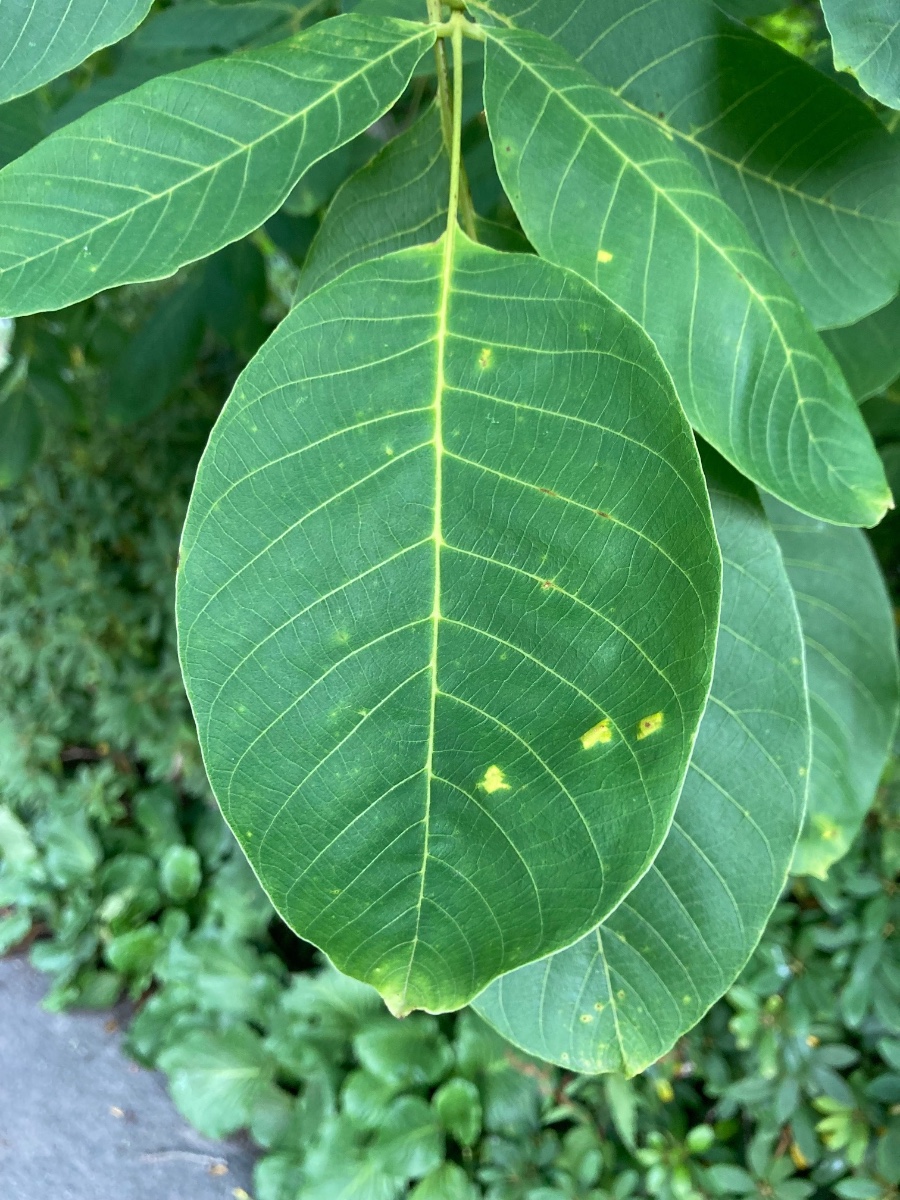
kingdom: Fungi
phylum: Basidiomycota
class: Exobasidiomycetes
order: Microstromatales
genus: Pseudomicrostroma
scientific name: Pseudomicrostroma juglandis
